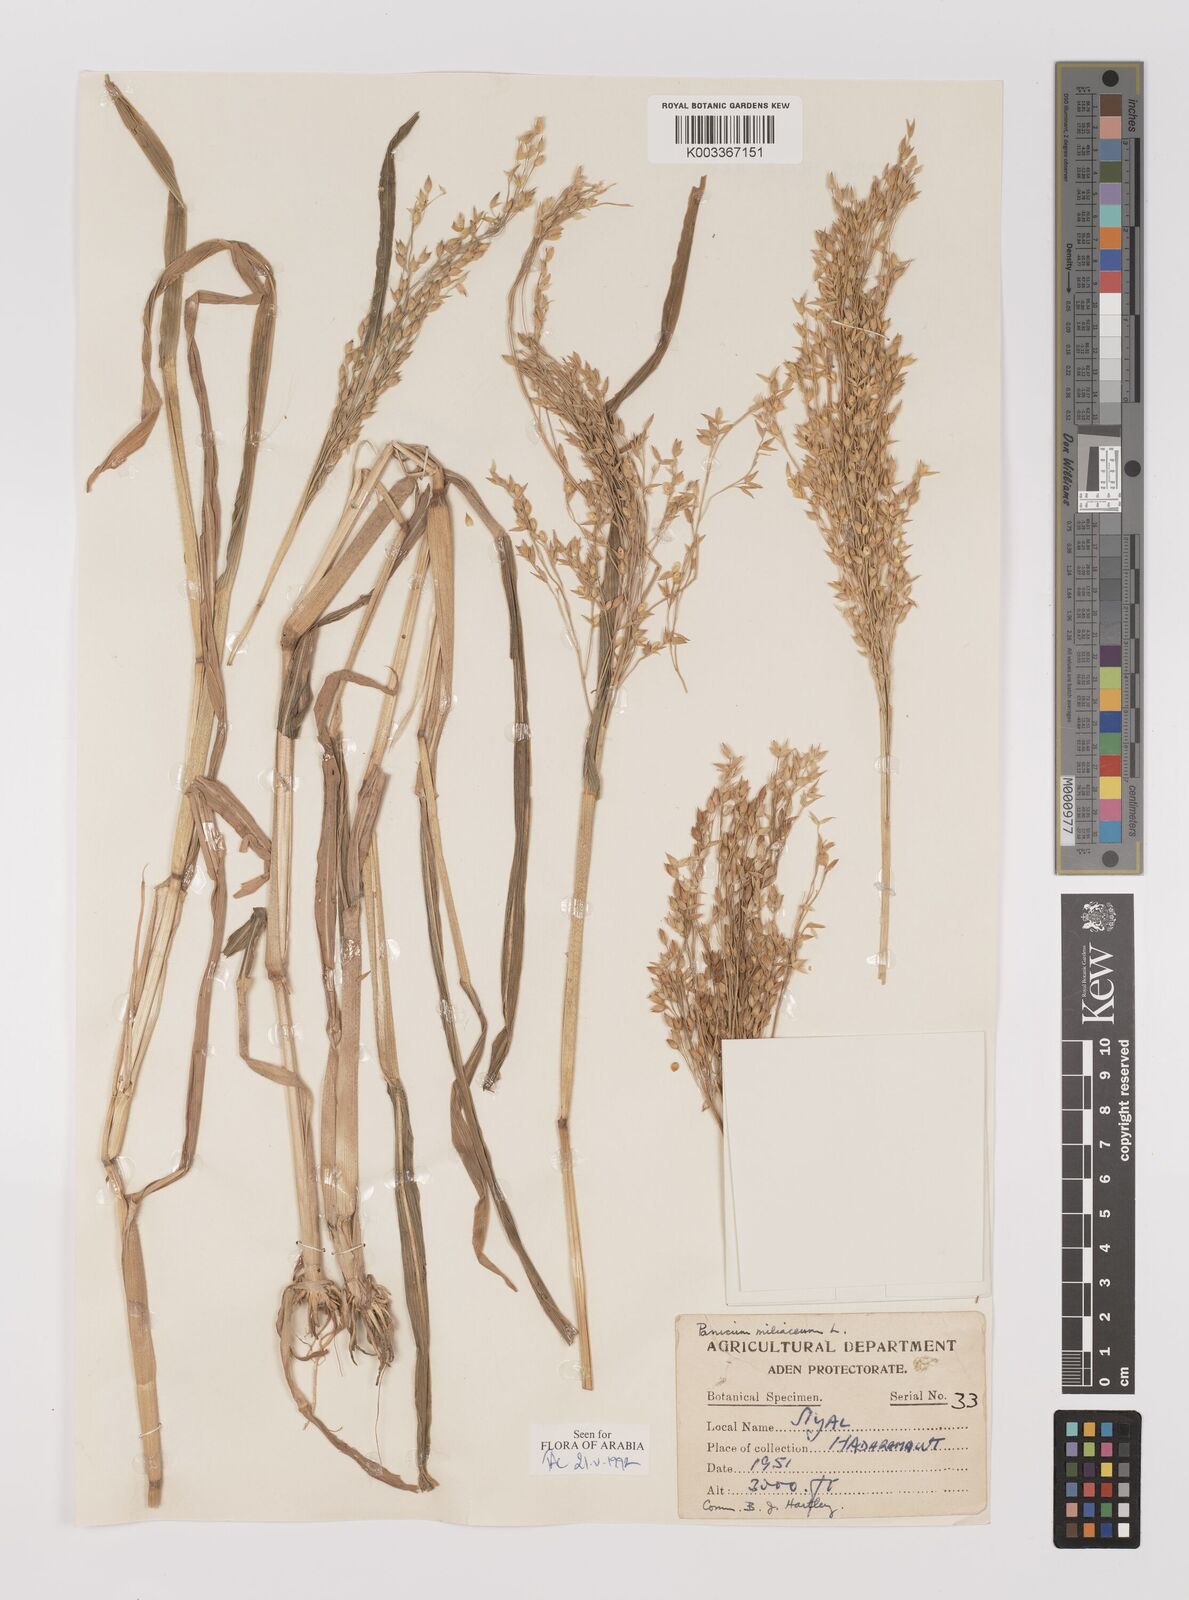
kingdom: Plantae
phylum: Tracheophyta
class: Liliopsida
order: Poales
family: Poaceae
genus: Panicum
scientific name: Panicum miliaceum
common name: Common millet
